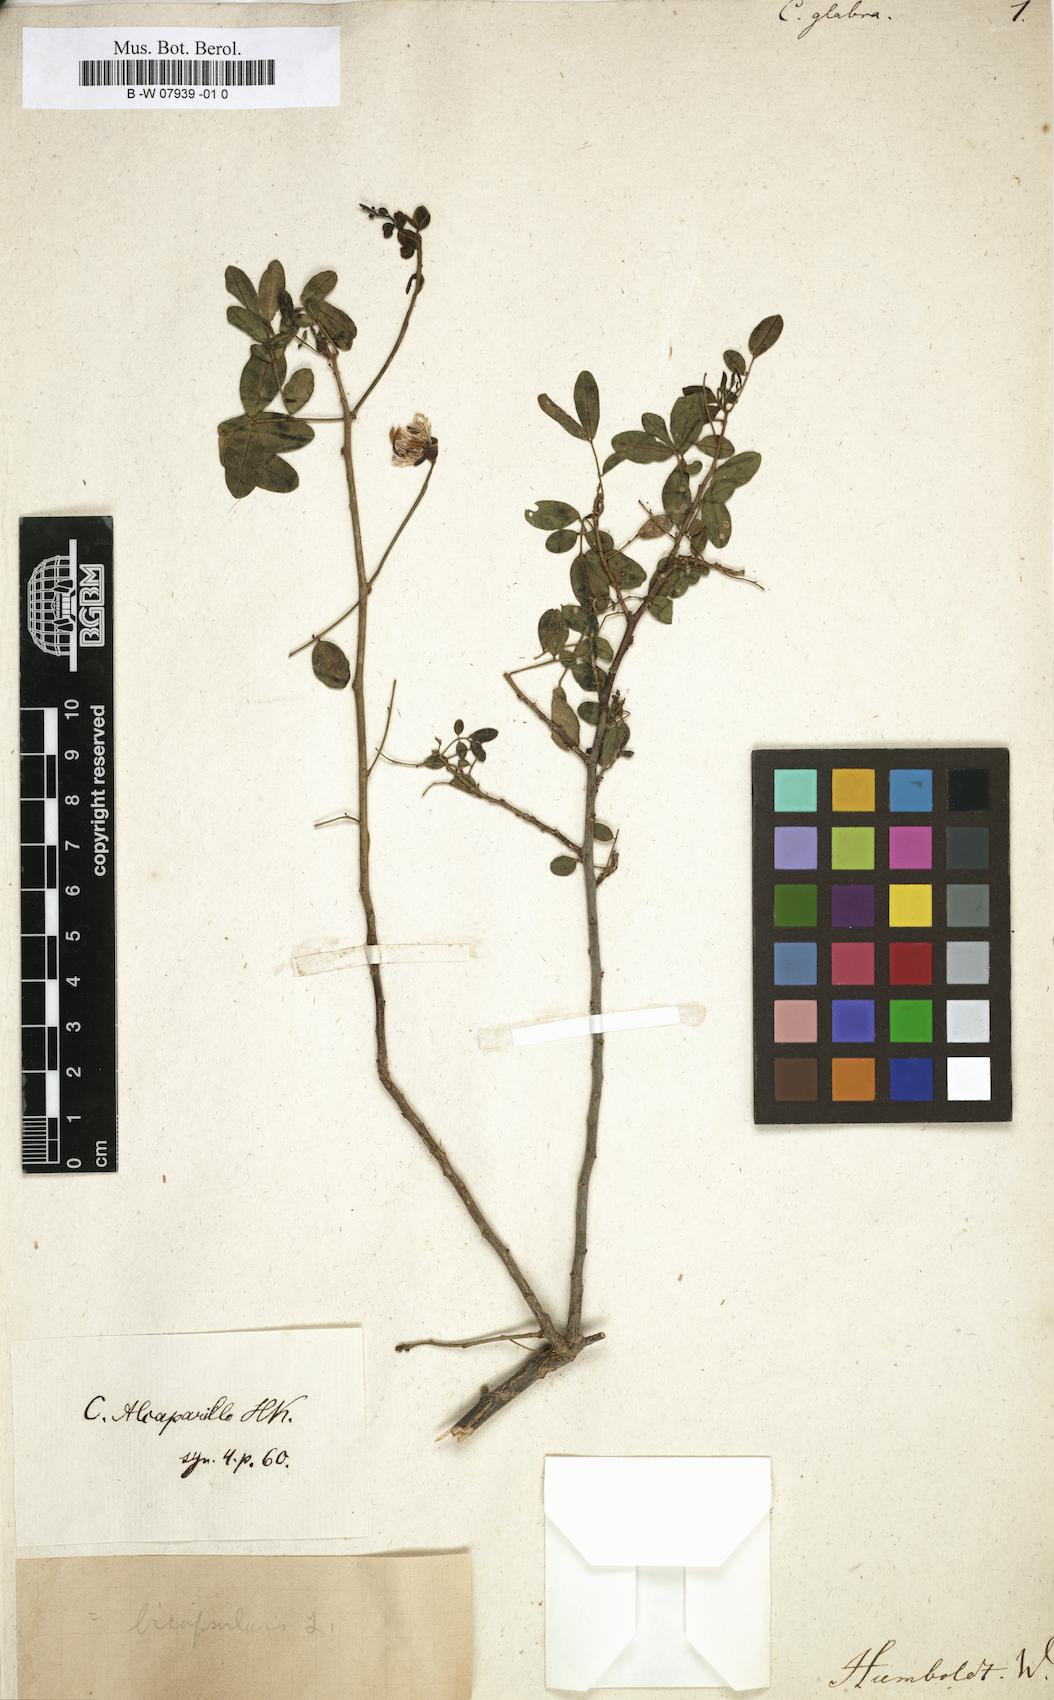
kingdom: Plantae
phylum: Tracheophyta
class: Magnoliopsida
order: Fabales
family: Fabaceae
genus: Chamaecrista
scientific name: Chamaecrista cytisoides
